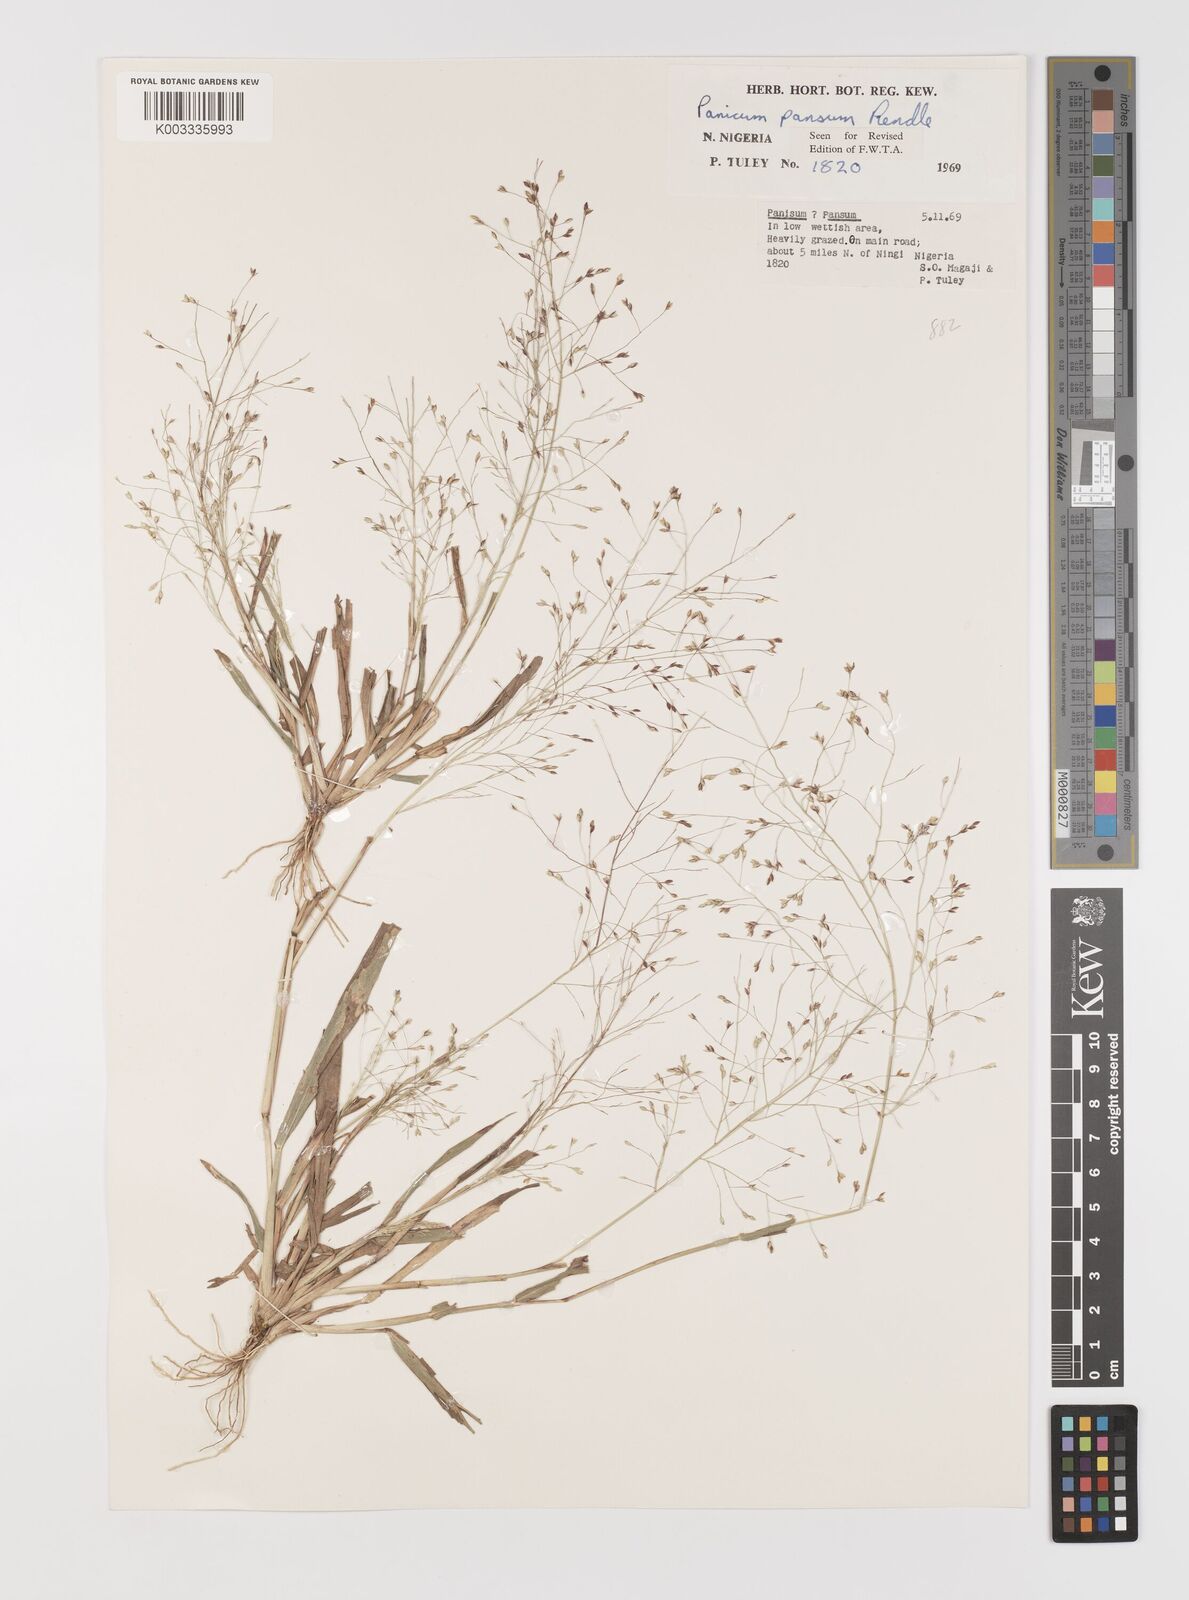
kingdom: Plantae
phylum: Tracheophyta
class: Liliopsida
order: Poales
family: Poaceae
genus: Panicum
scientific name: Panicum pansum
